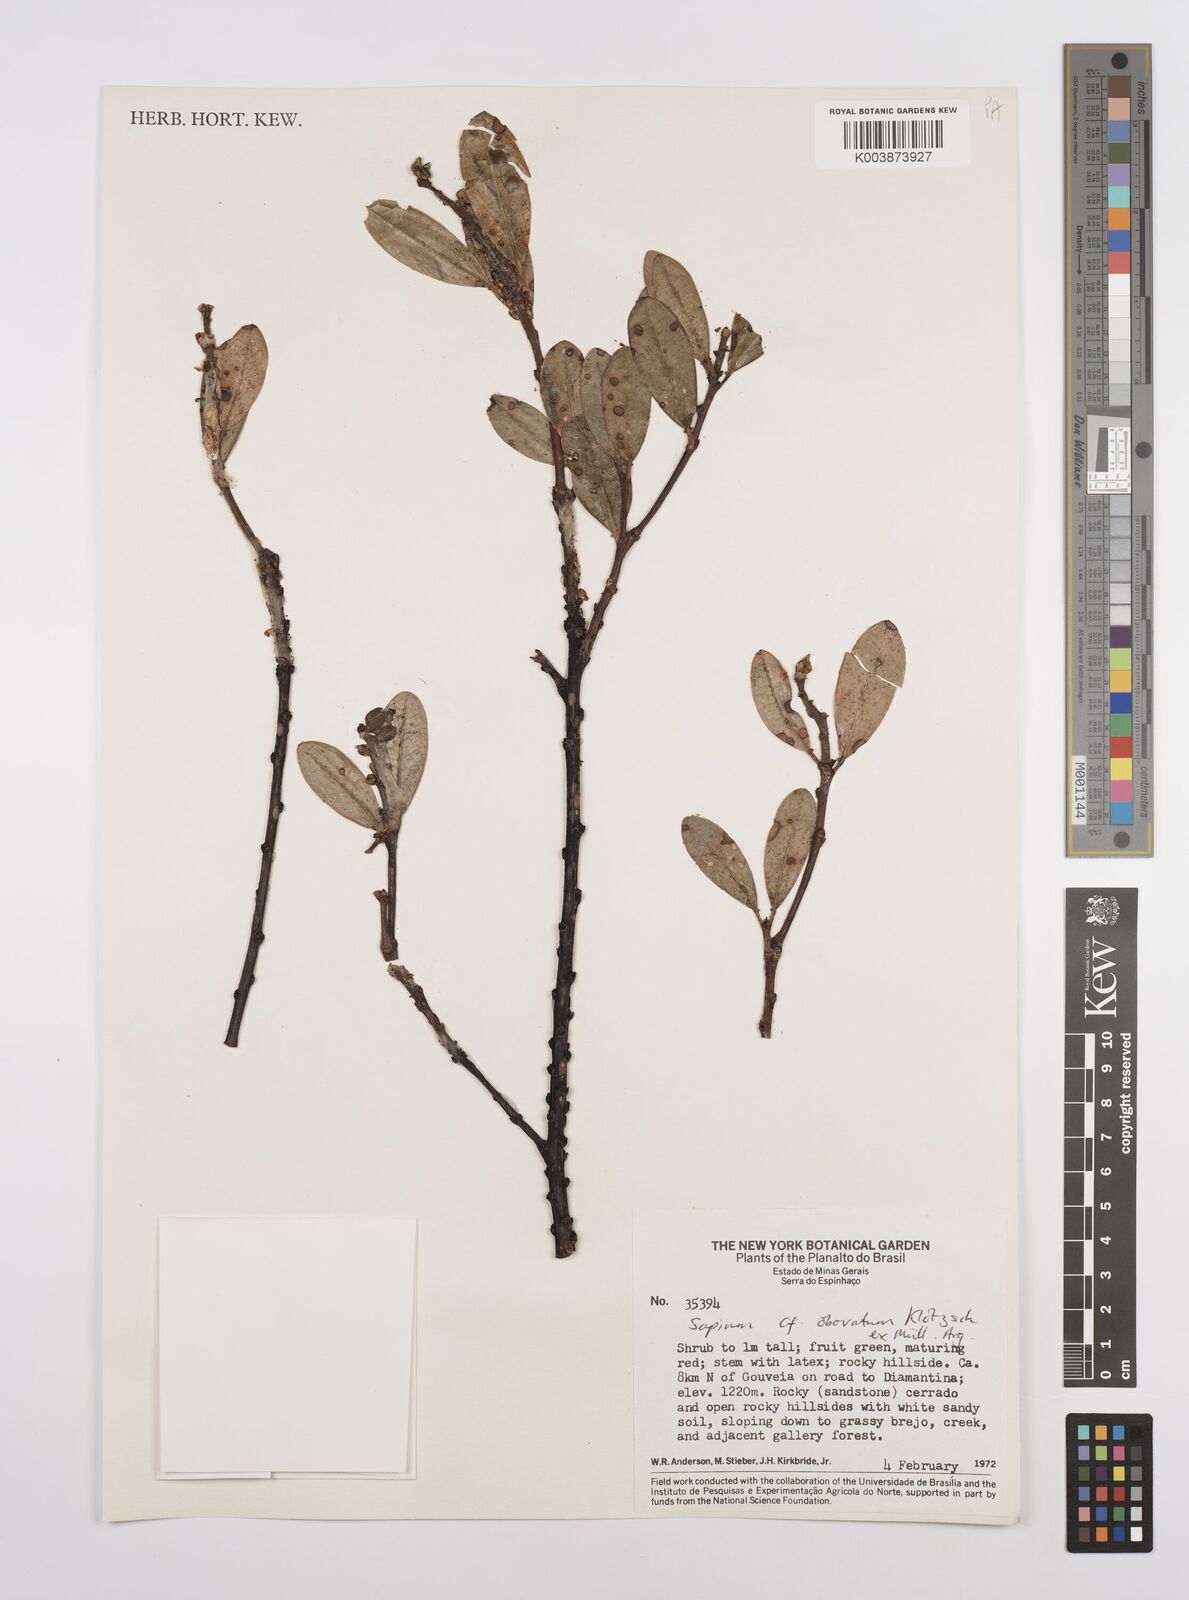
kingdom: Plantae
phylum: Tracheophyta
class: Magnoliopsida
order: Malpighiales
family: Euphorbiaceae
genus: Sapium
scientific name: Sapium obovatum
